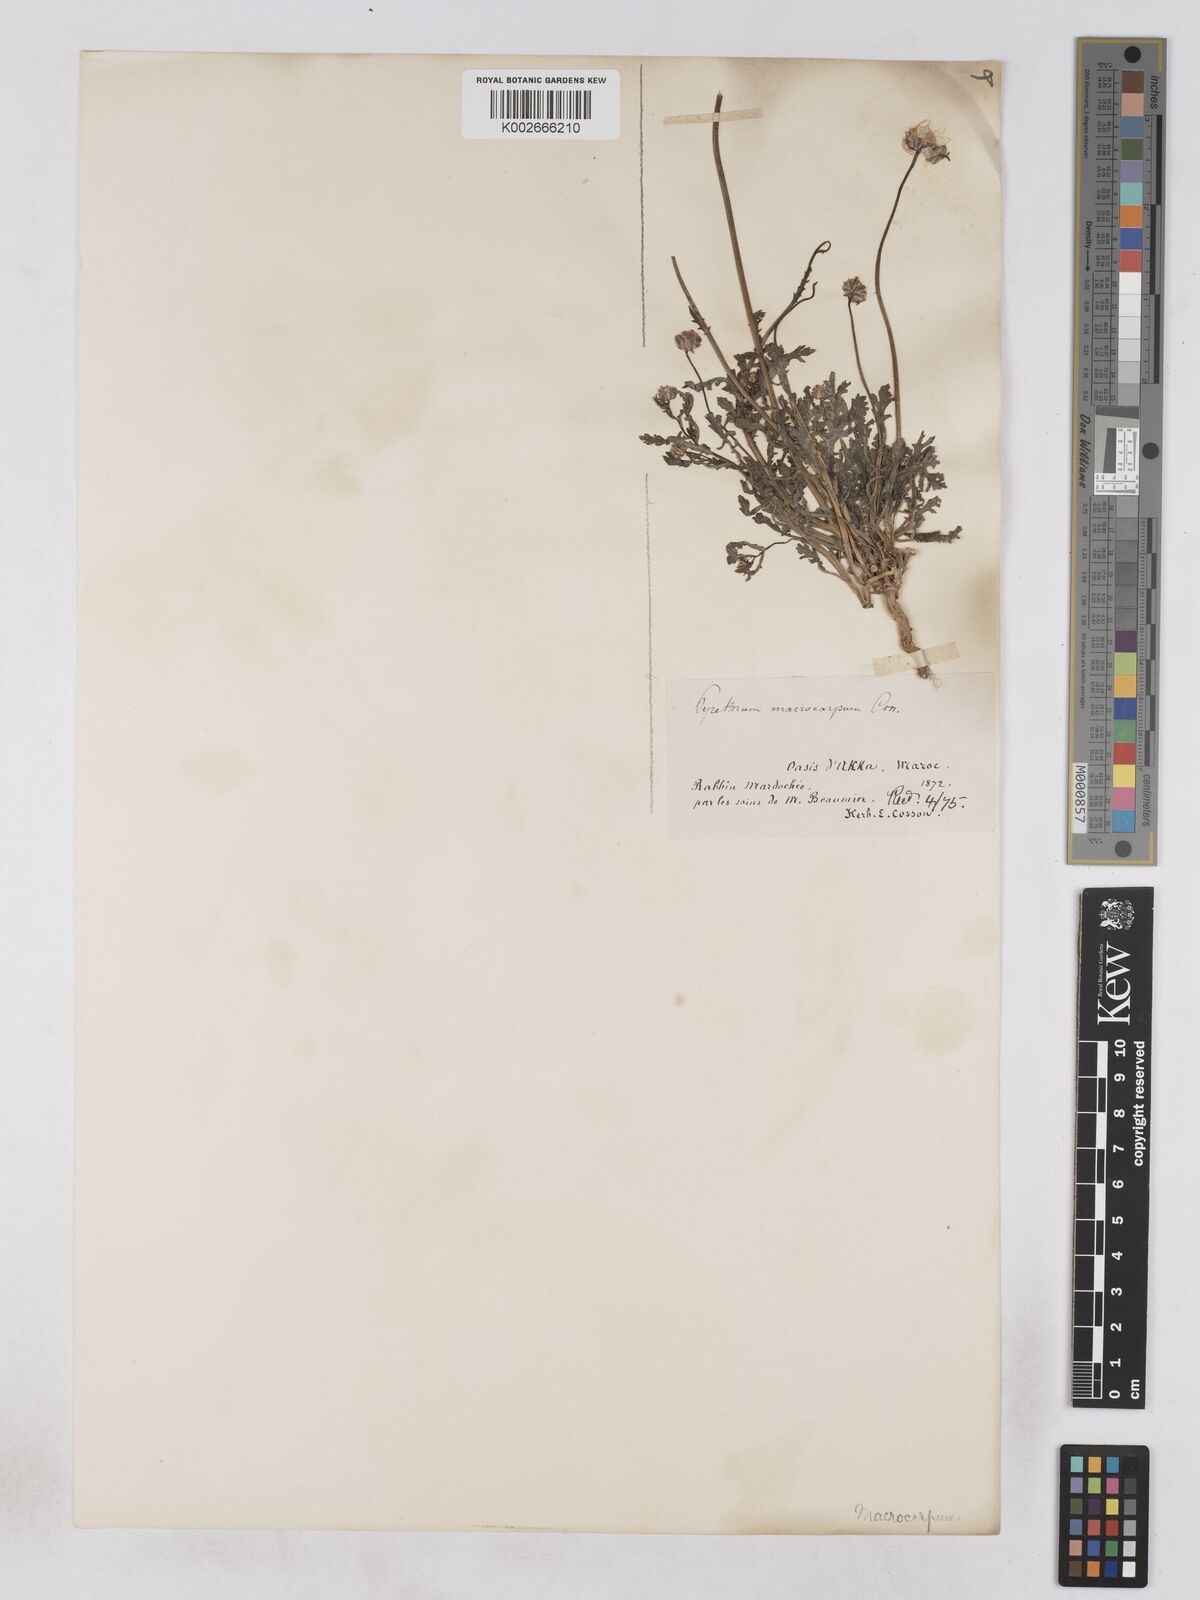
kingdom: Plantae
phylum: Tracheophyta
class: Magnoliopsida
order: Asterales
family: Asteraceae
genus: Endopappus
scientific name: Endopappus
